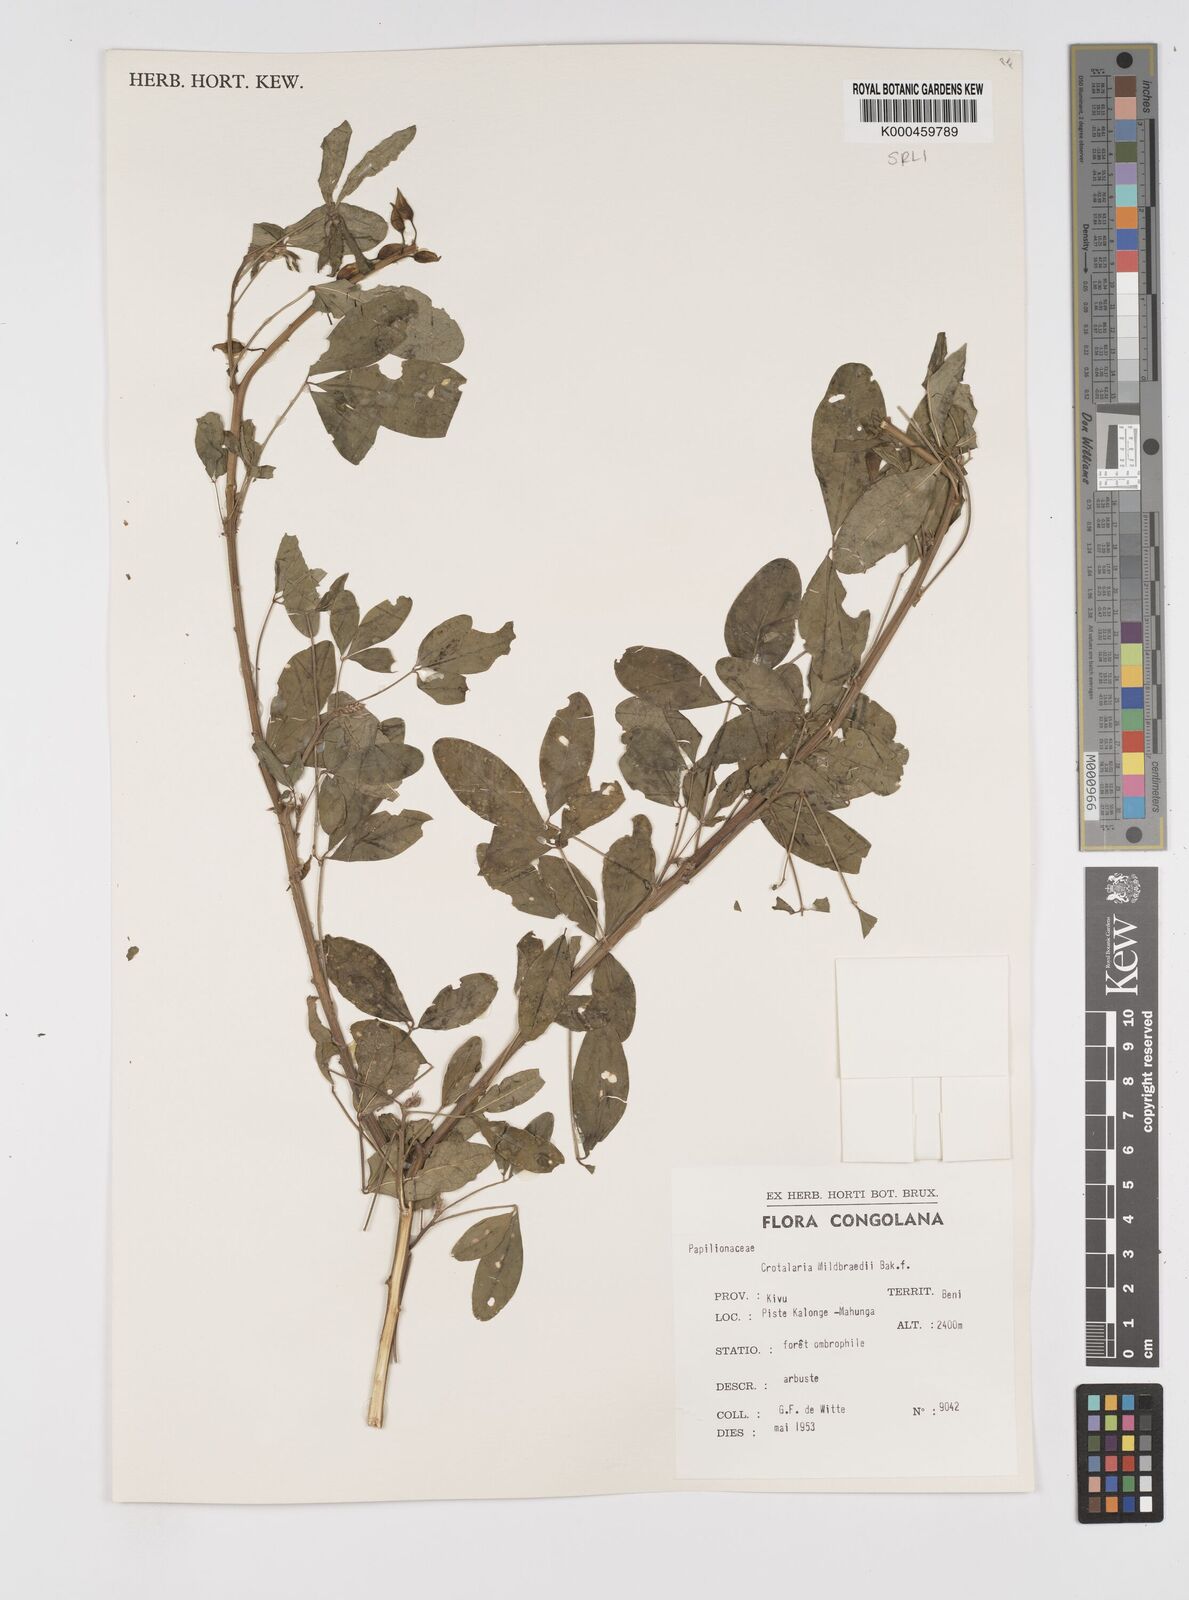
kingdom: Plantae
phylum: Tracheophyta
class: Magnoliopsida
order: Fabales
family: Fabaceae
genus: Crotalaria
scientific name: Crotalaria mildbraedii
